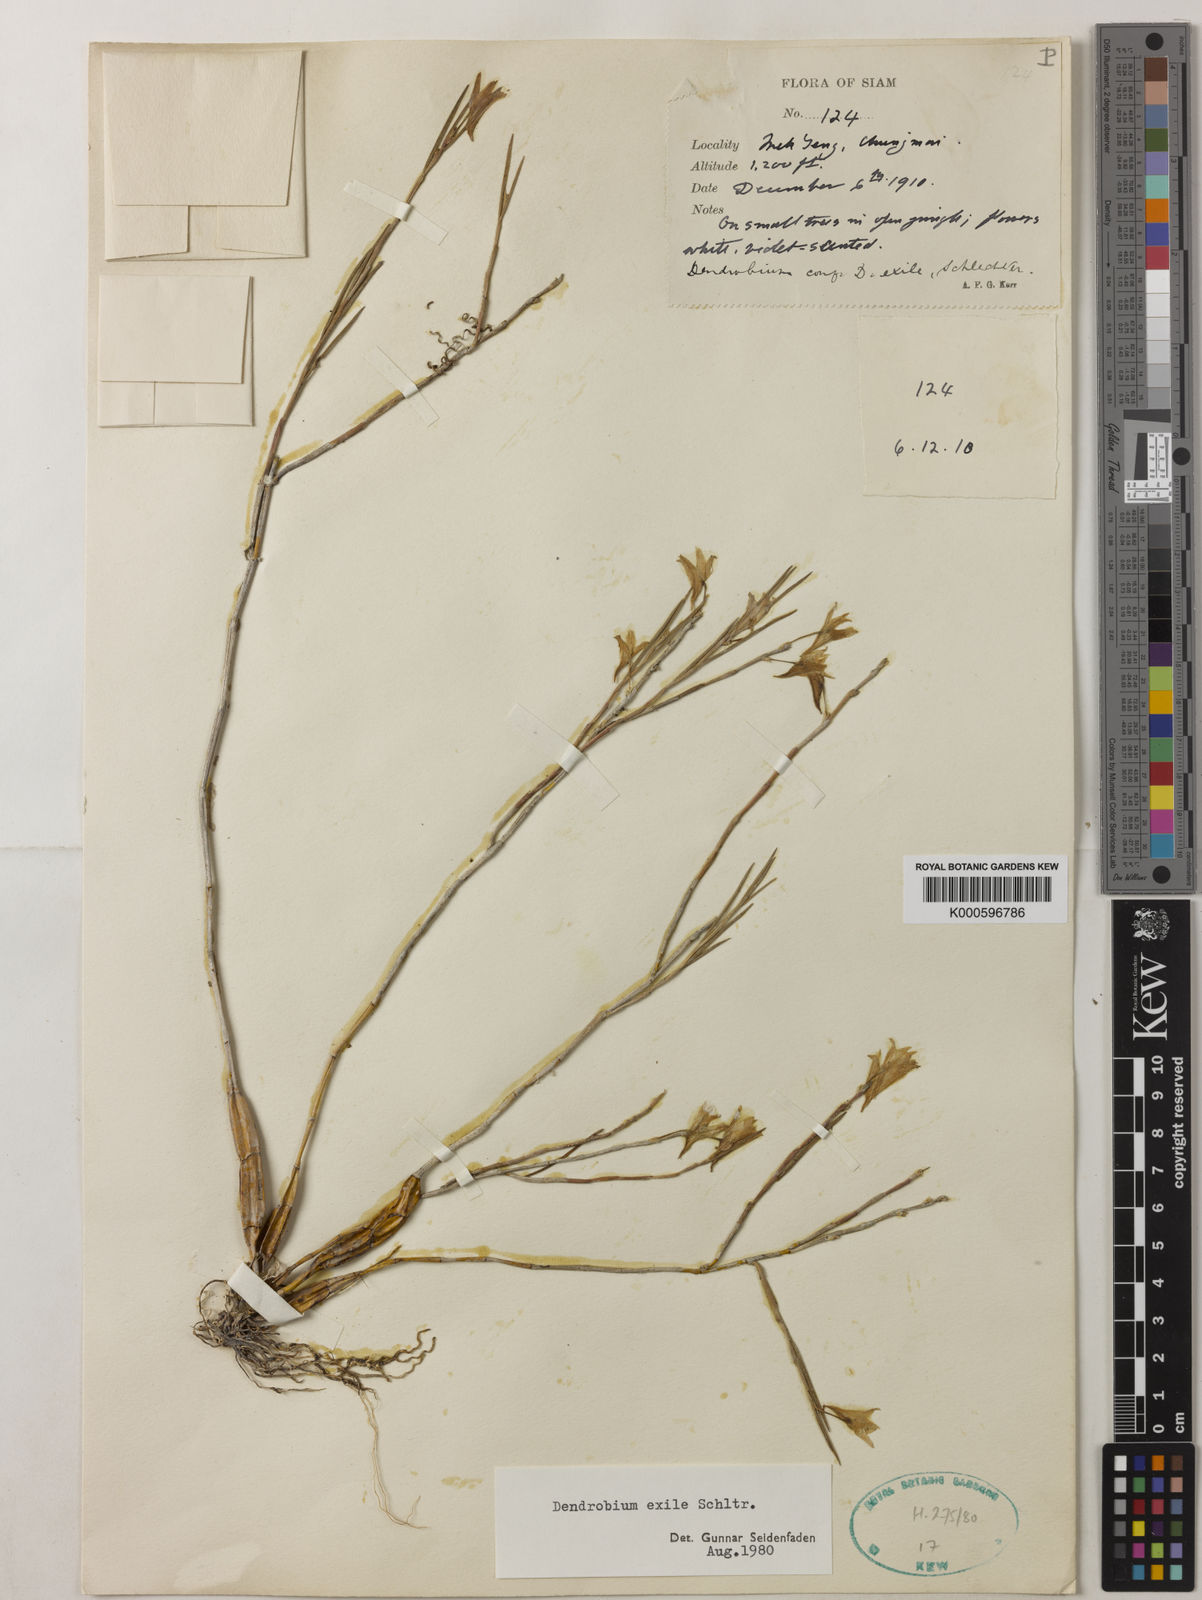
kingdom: Plantae
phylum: Tracheophyta
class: Liliopsida
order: Asparagales
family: Orchidaceae
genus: Dendrobium
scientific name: Dendrobium exile
